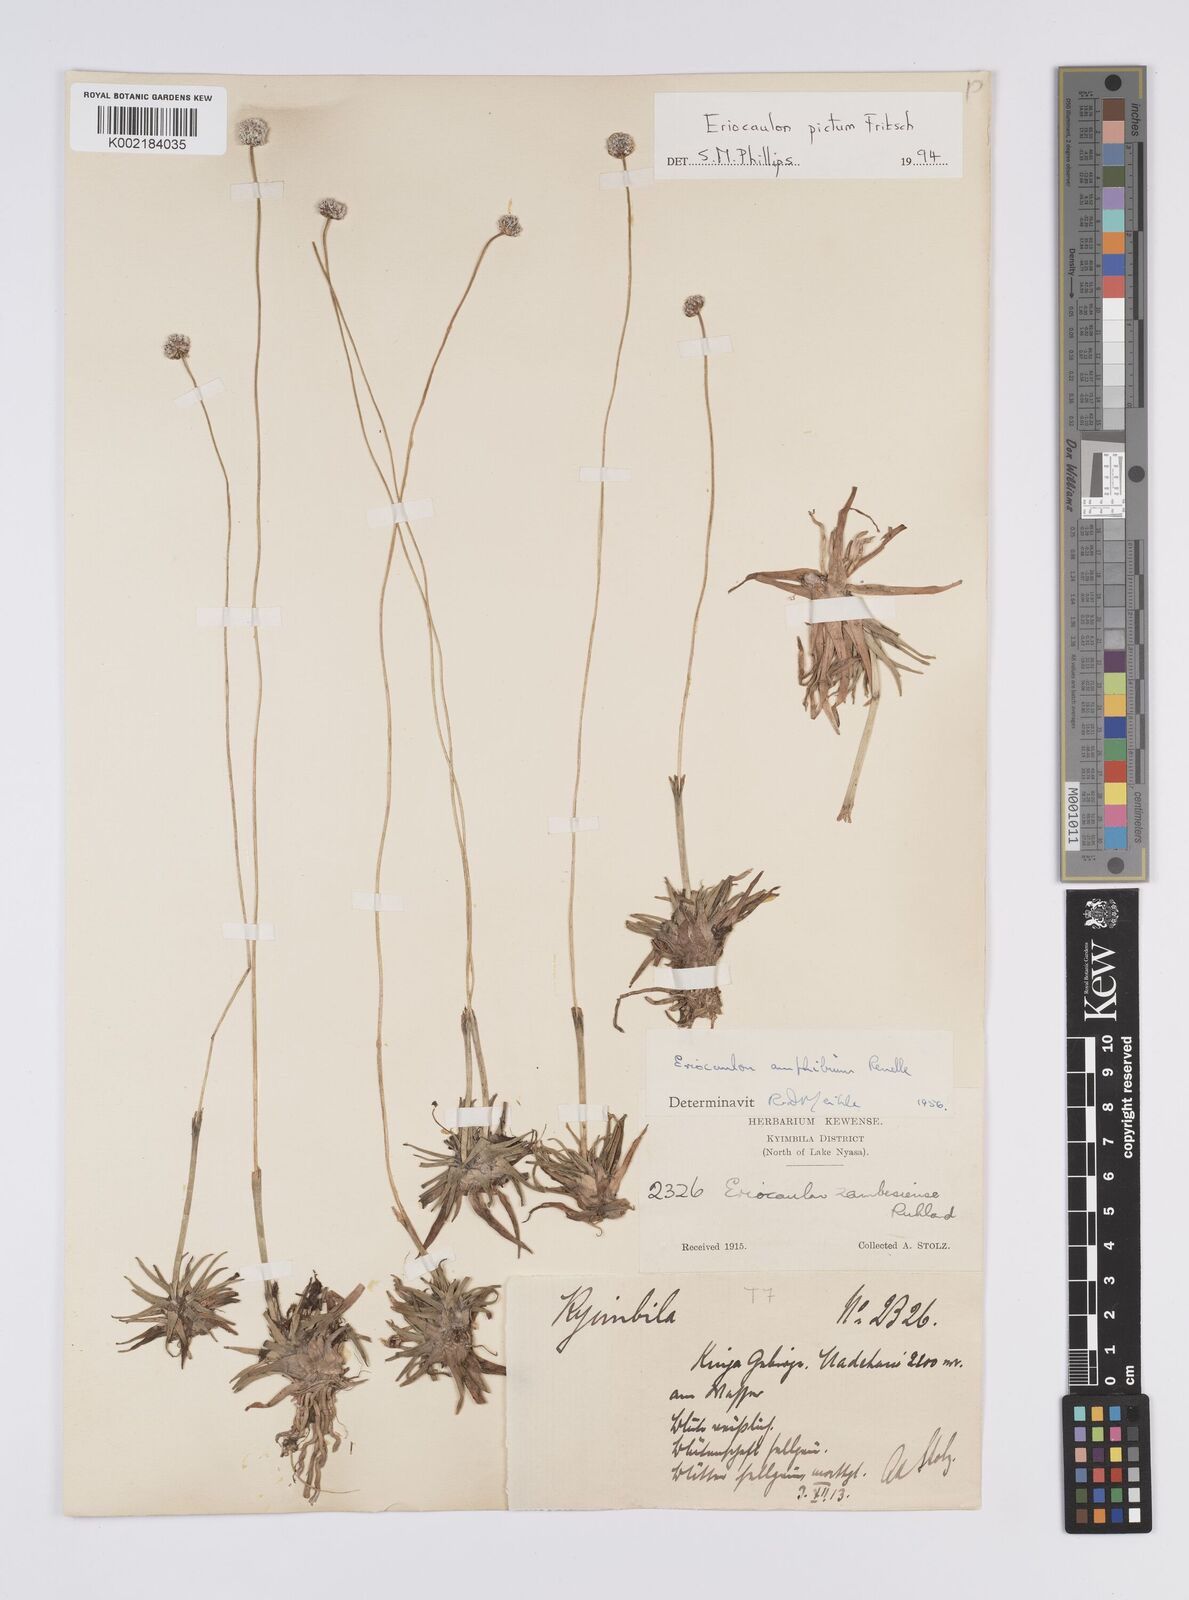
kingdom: Plantae
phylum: Tracheophyta
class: Liliopsida
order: Poales
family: Eriocaulaceae
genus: Eriocaulon
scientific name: Eriocaulon pictum
